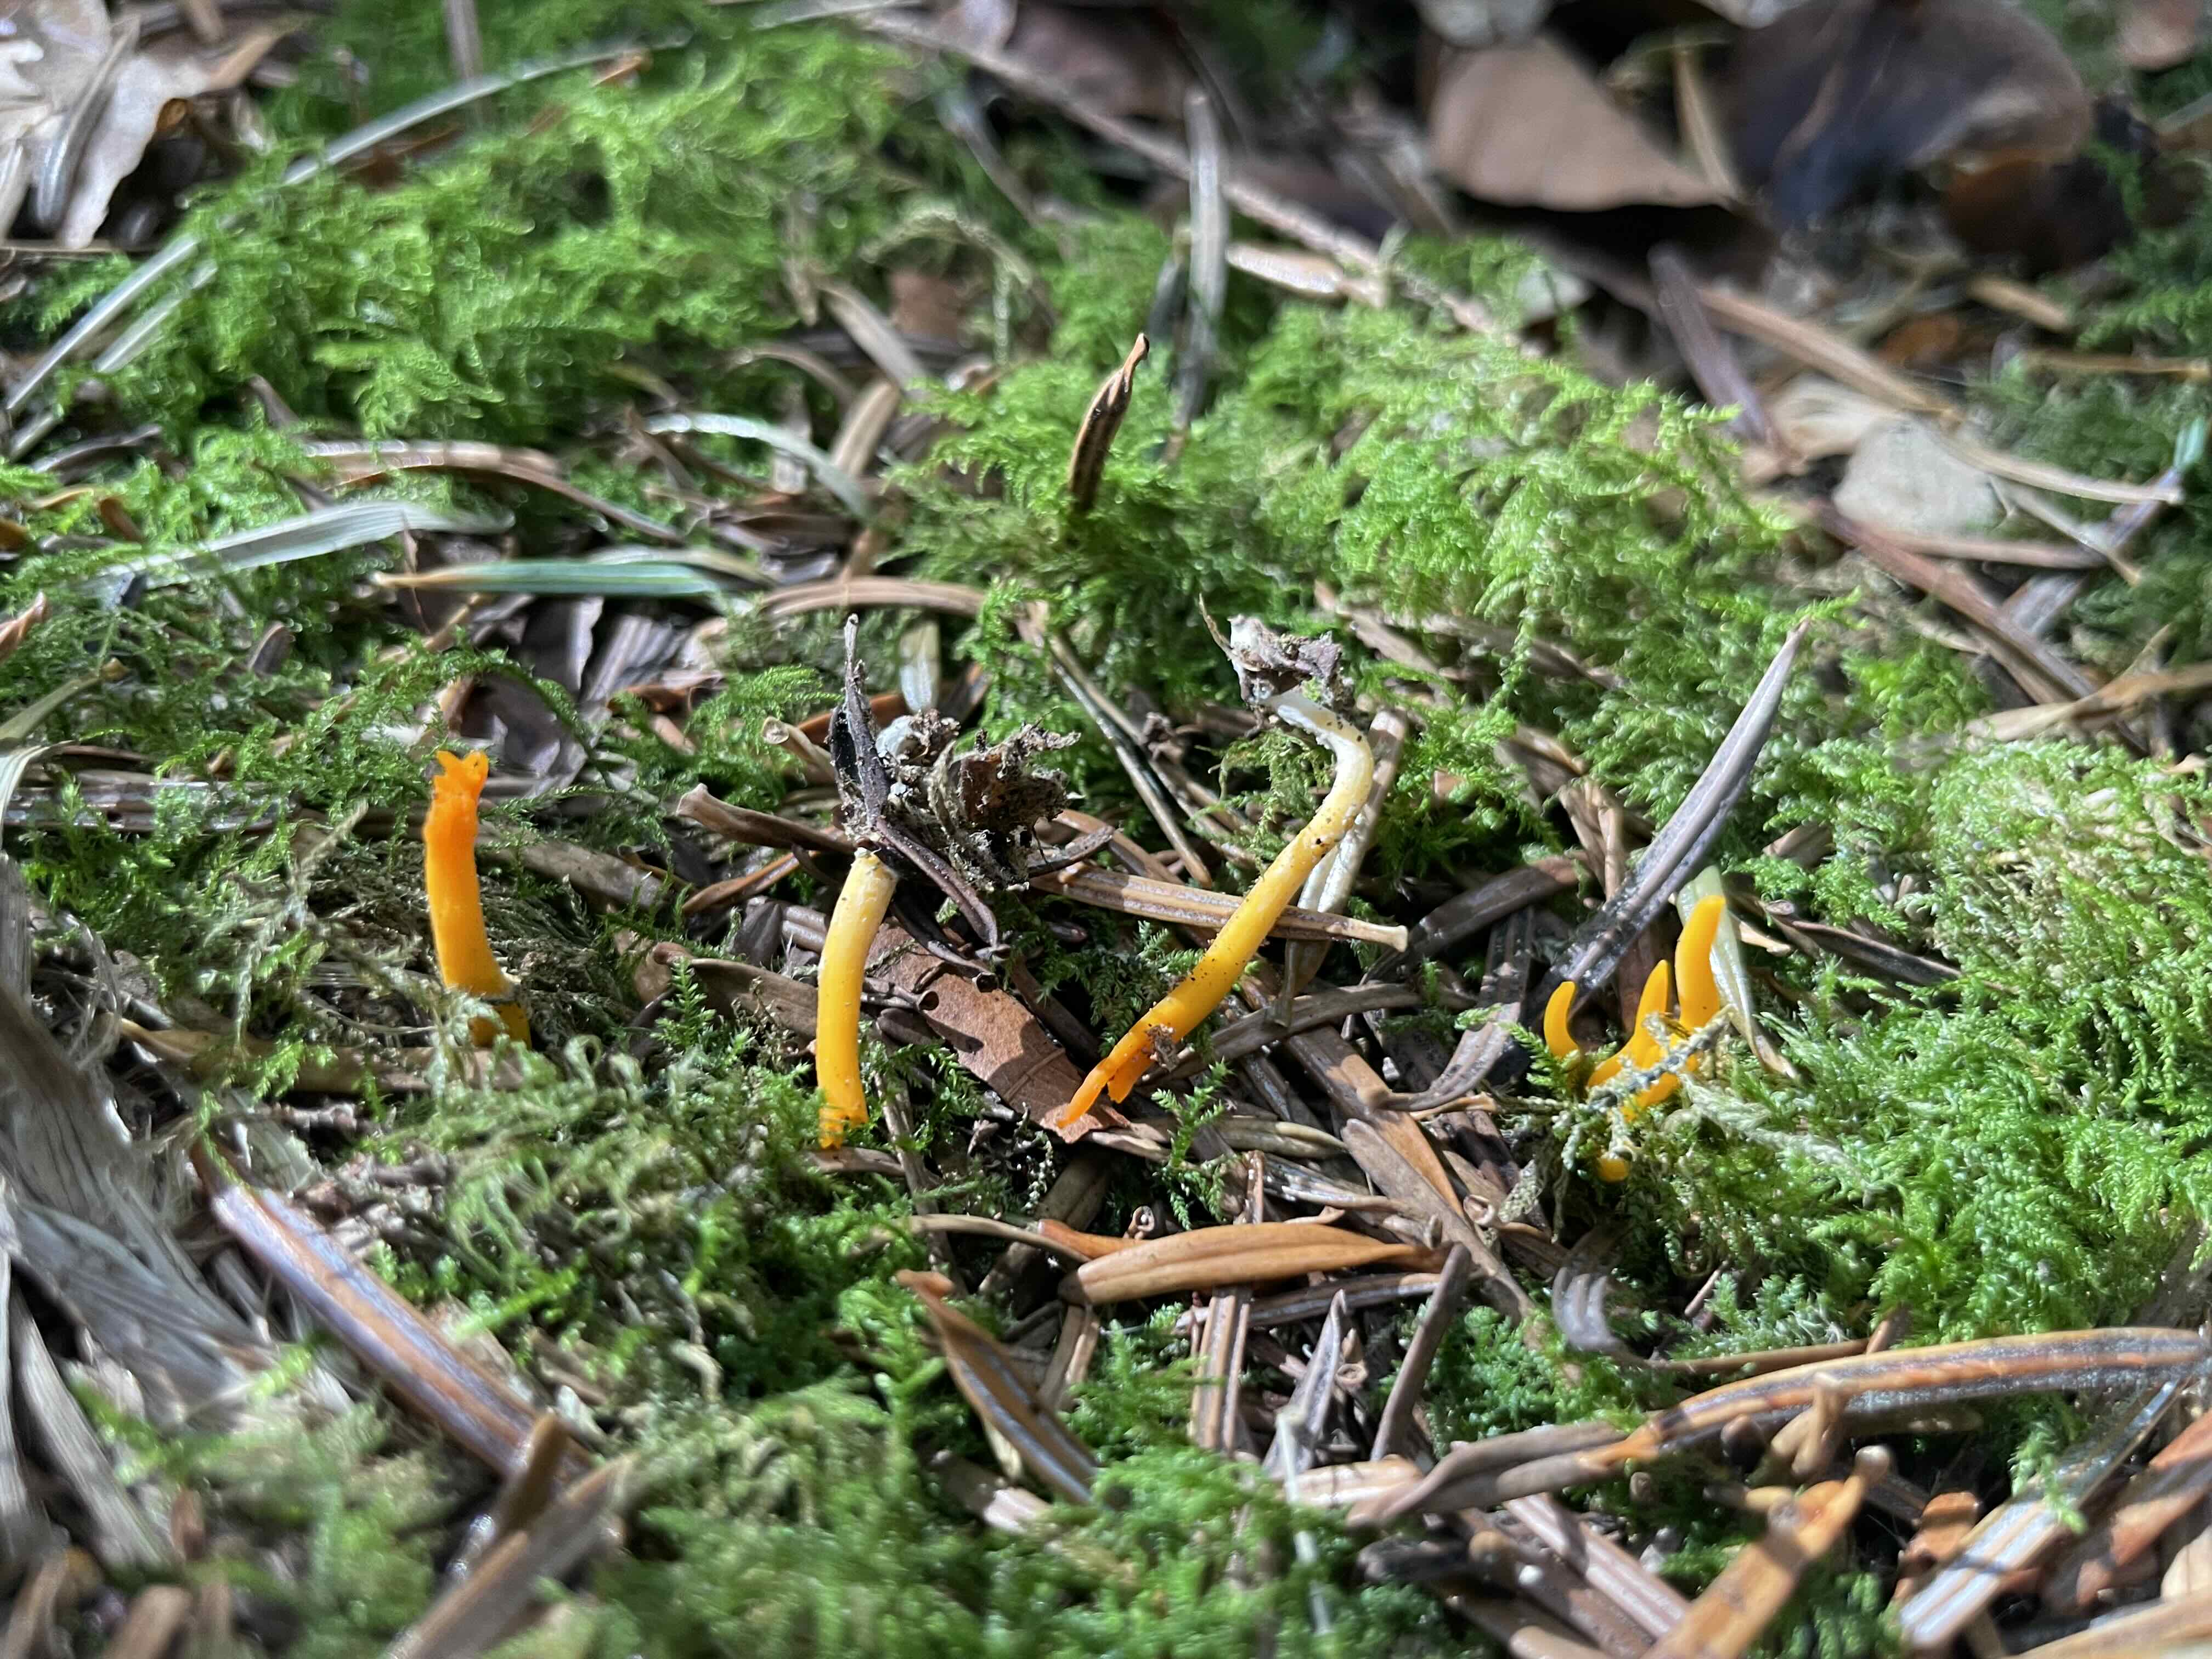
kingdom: Fungi
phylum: Basidiomycota
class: Dacrymycetes
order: Dacrymycetales
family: Dacrymycetaceae
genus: Calocera
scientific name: Calocera viscosa
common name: almindelig guldgaffel
